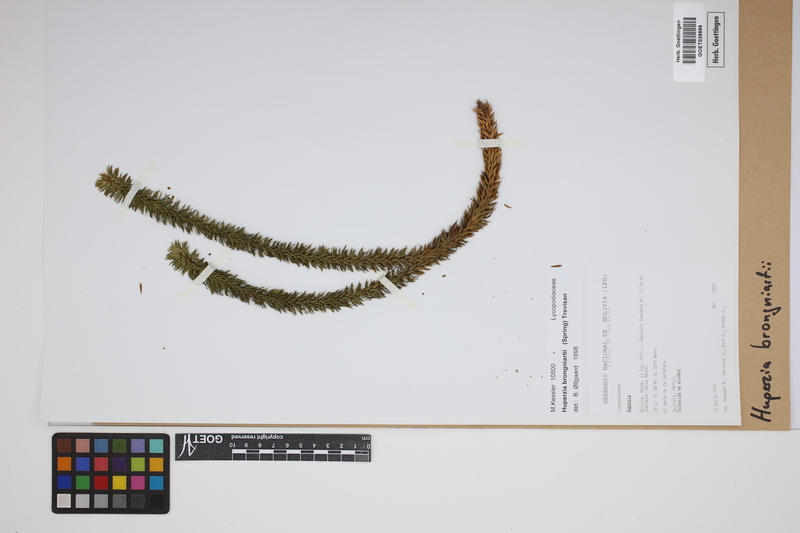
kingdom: Plantae
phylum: Tracheophyta
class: Lycopodiopsida
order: Lycopodiales
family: Lycopodiaceae
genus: Phlegmariurus
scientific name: Phlegmariurus brongniartii
